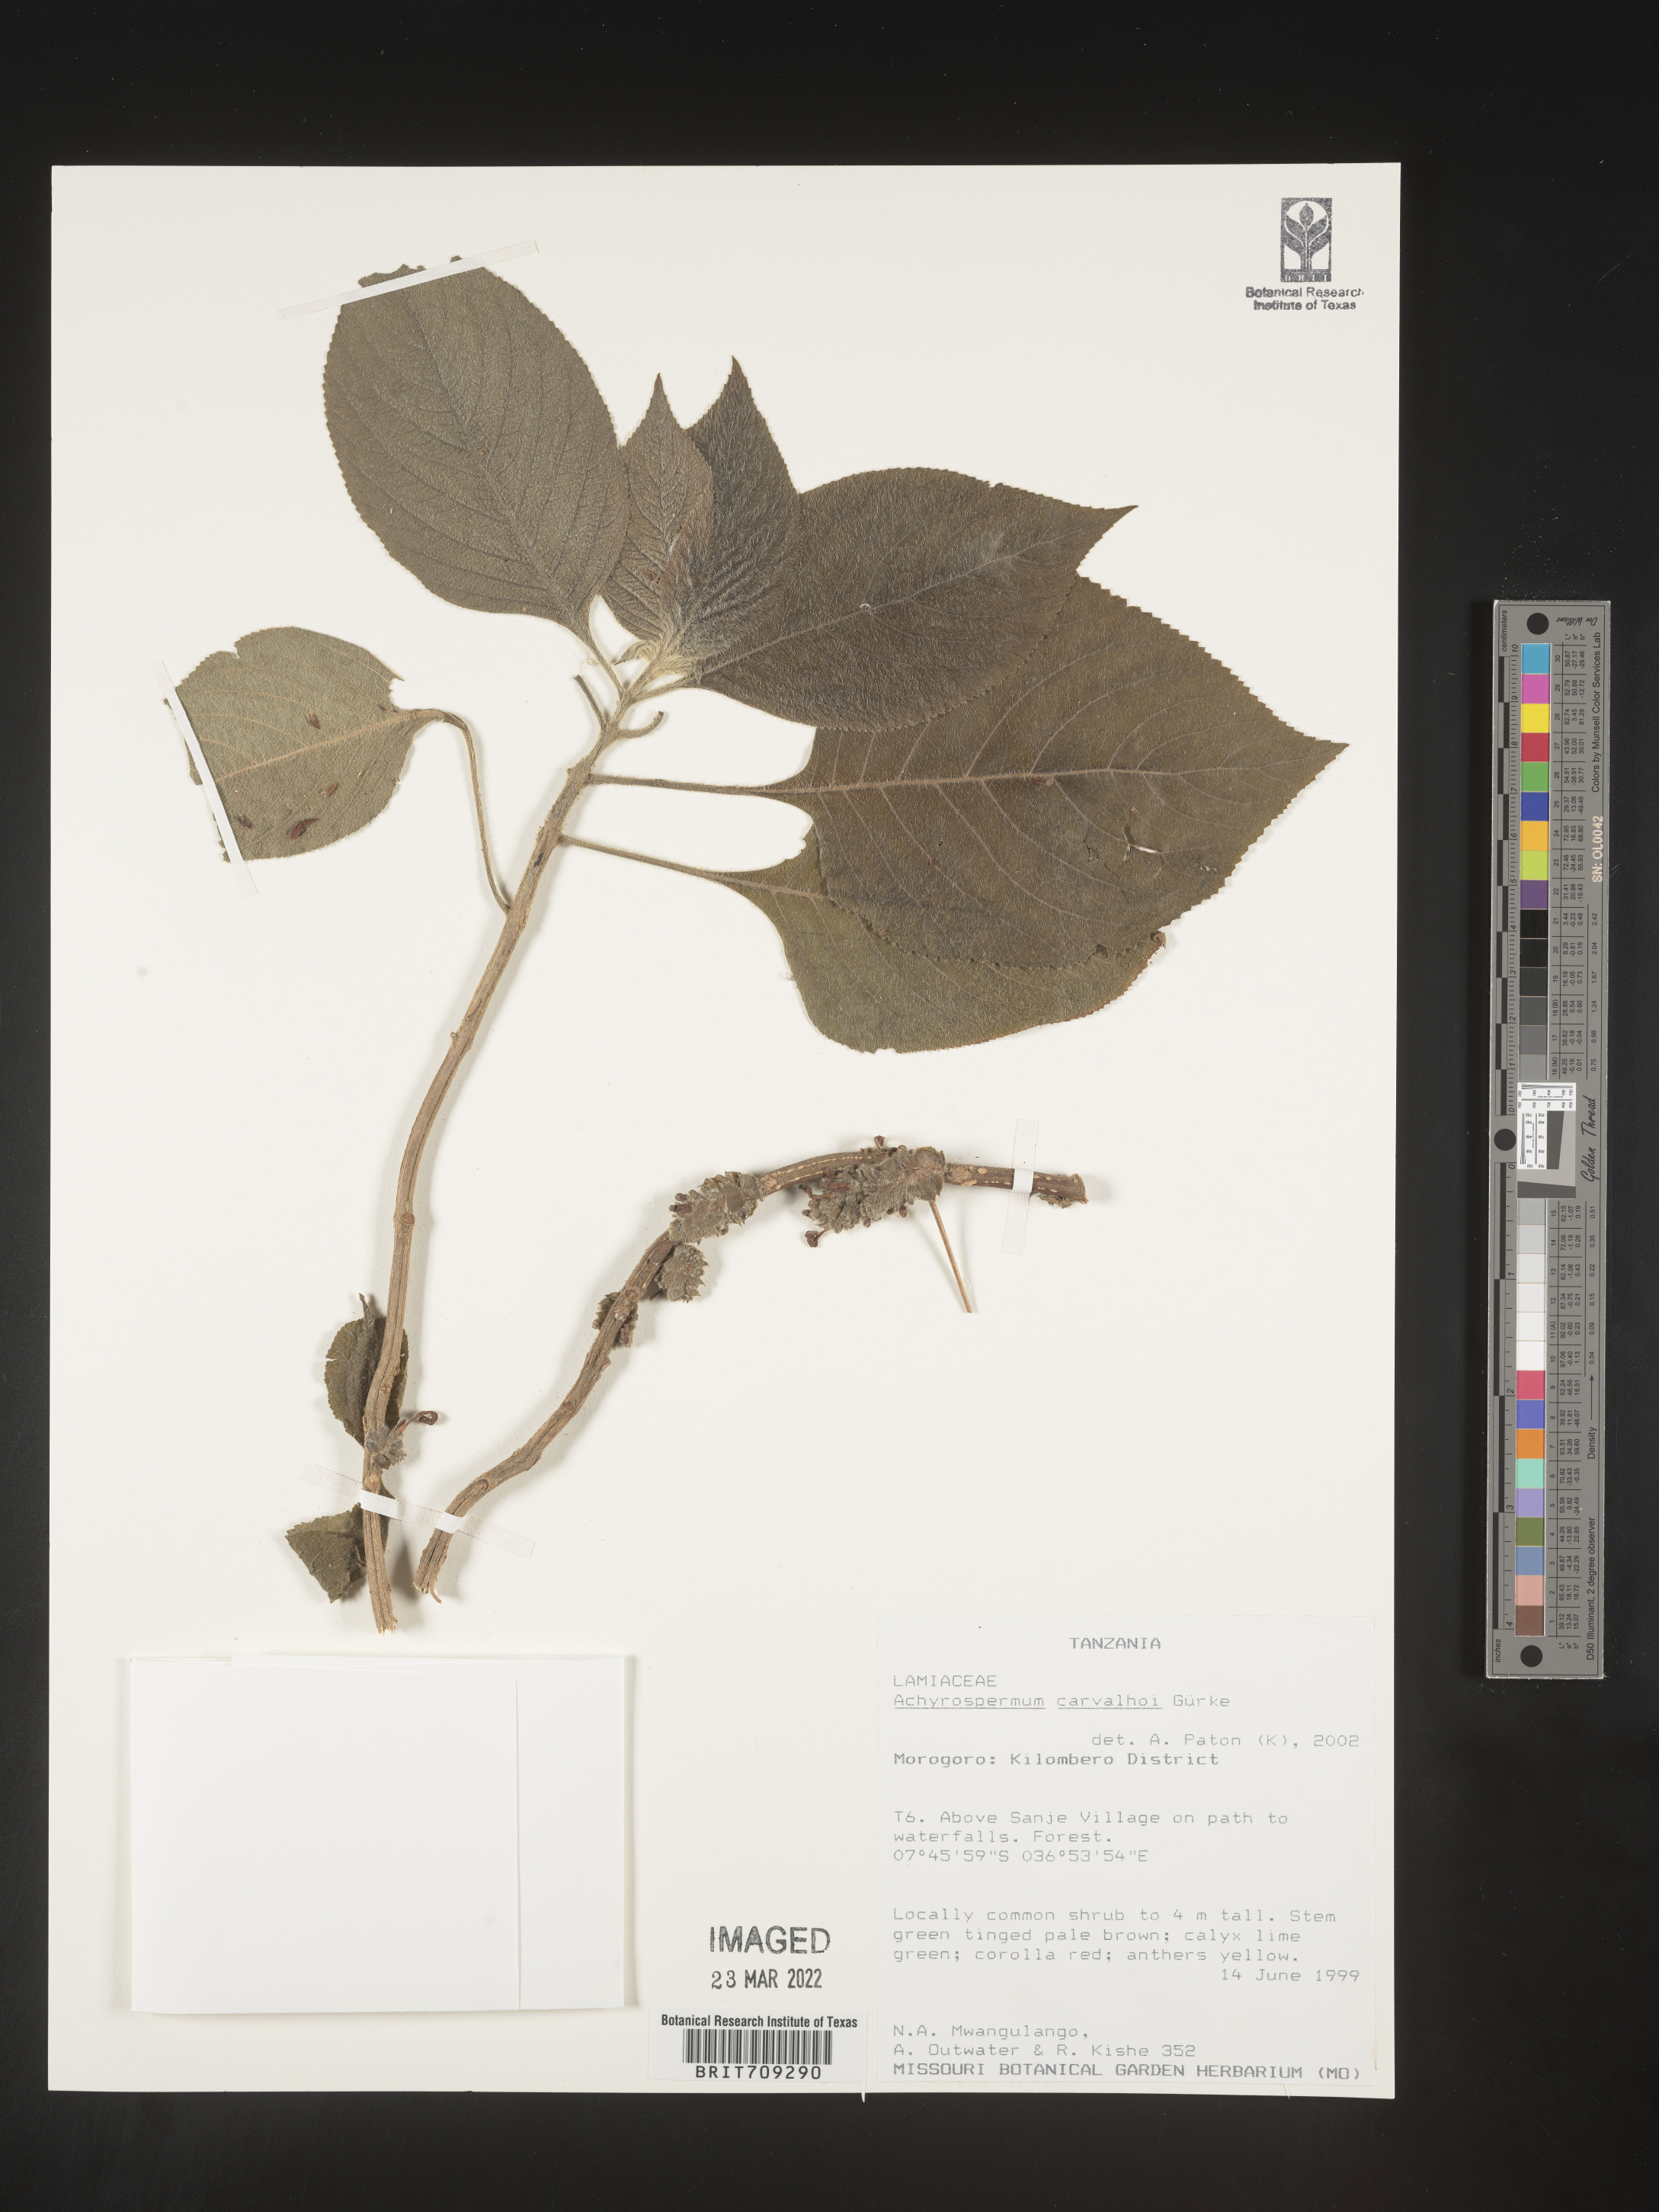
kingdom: Plantae
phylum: Tracheophyta
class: Magnoliopsida
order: Lamiales
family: Lamiaceae
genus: Achyrospermum
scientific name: Achyrospermum
